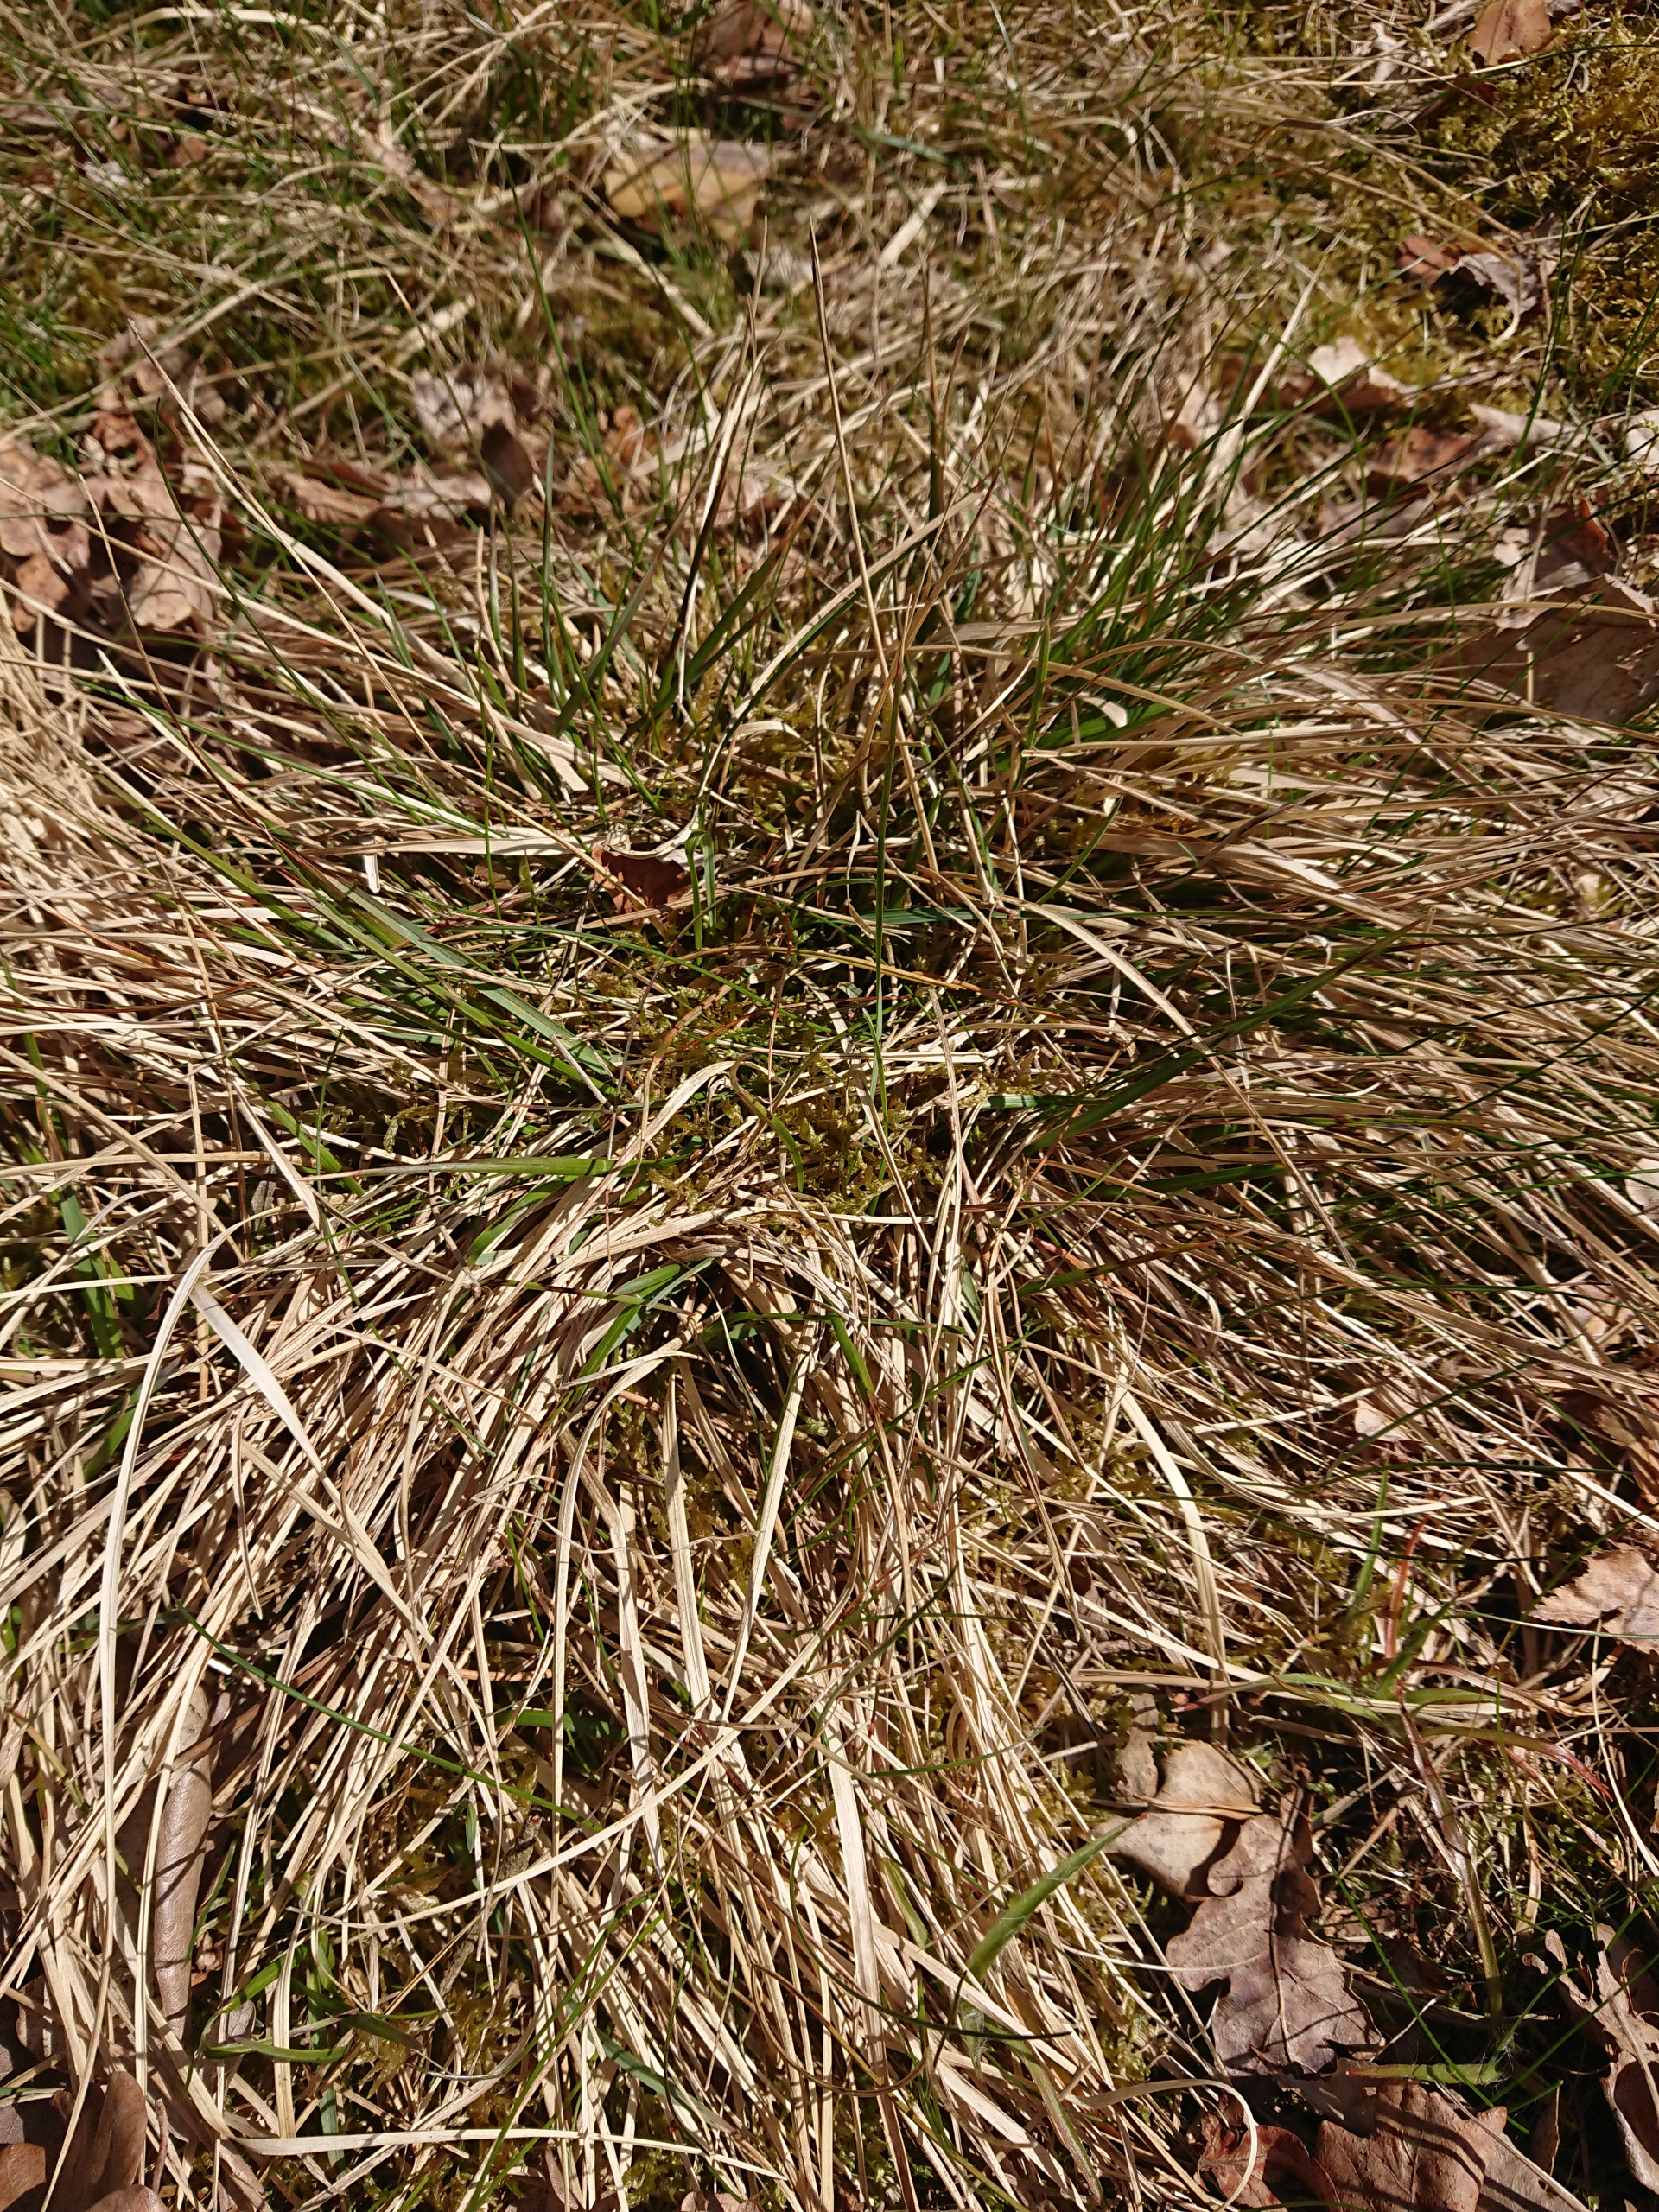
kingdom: Plantae
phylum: Tracheophyta
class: Liliopsida
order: Poales
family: Poaceae
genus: Danthonia
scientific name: Danthonia decumbens
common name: Tandbælg
